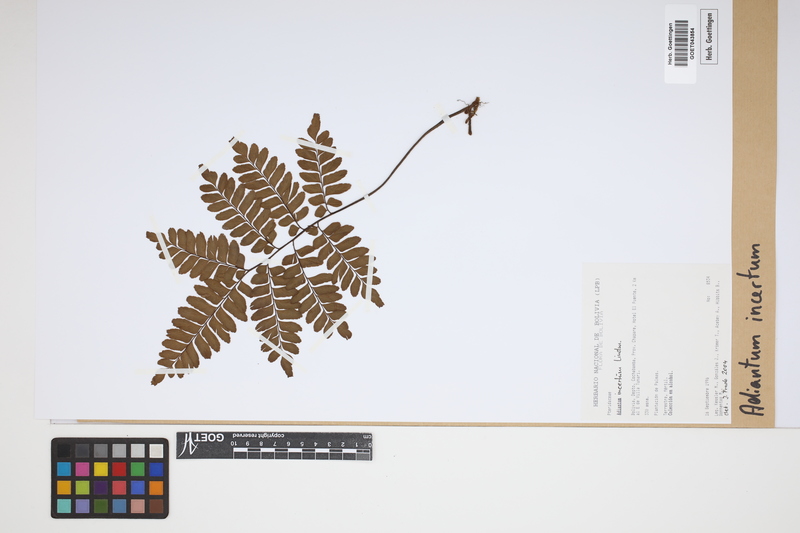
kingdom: Plantae
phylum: Tracheophyta
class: Polypodiopsida
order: Polypodiales
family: Pteridaceae
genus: Adiantum
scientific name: Adiantum incertum
